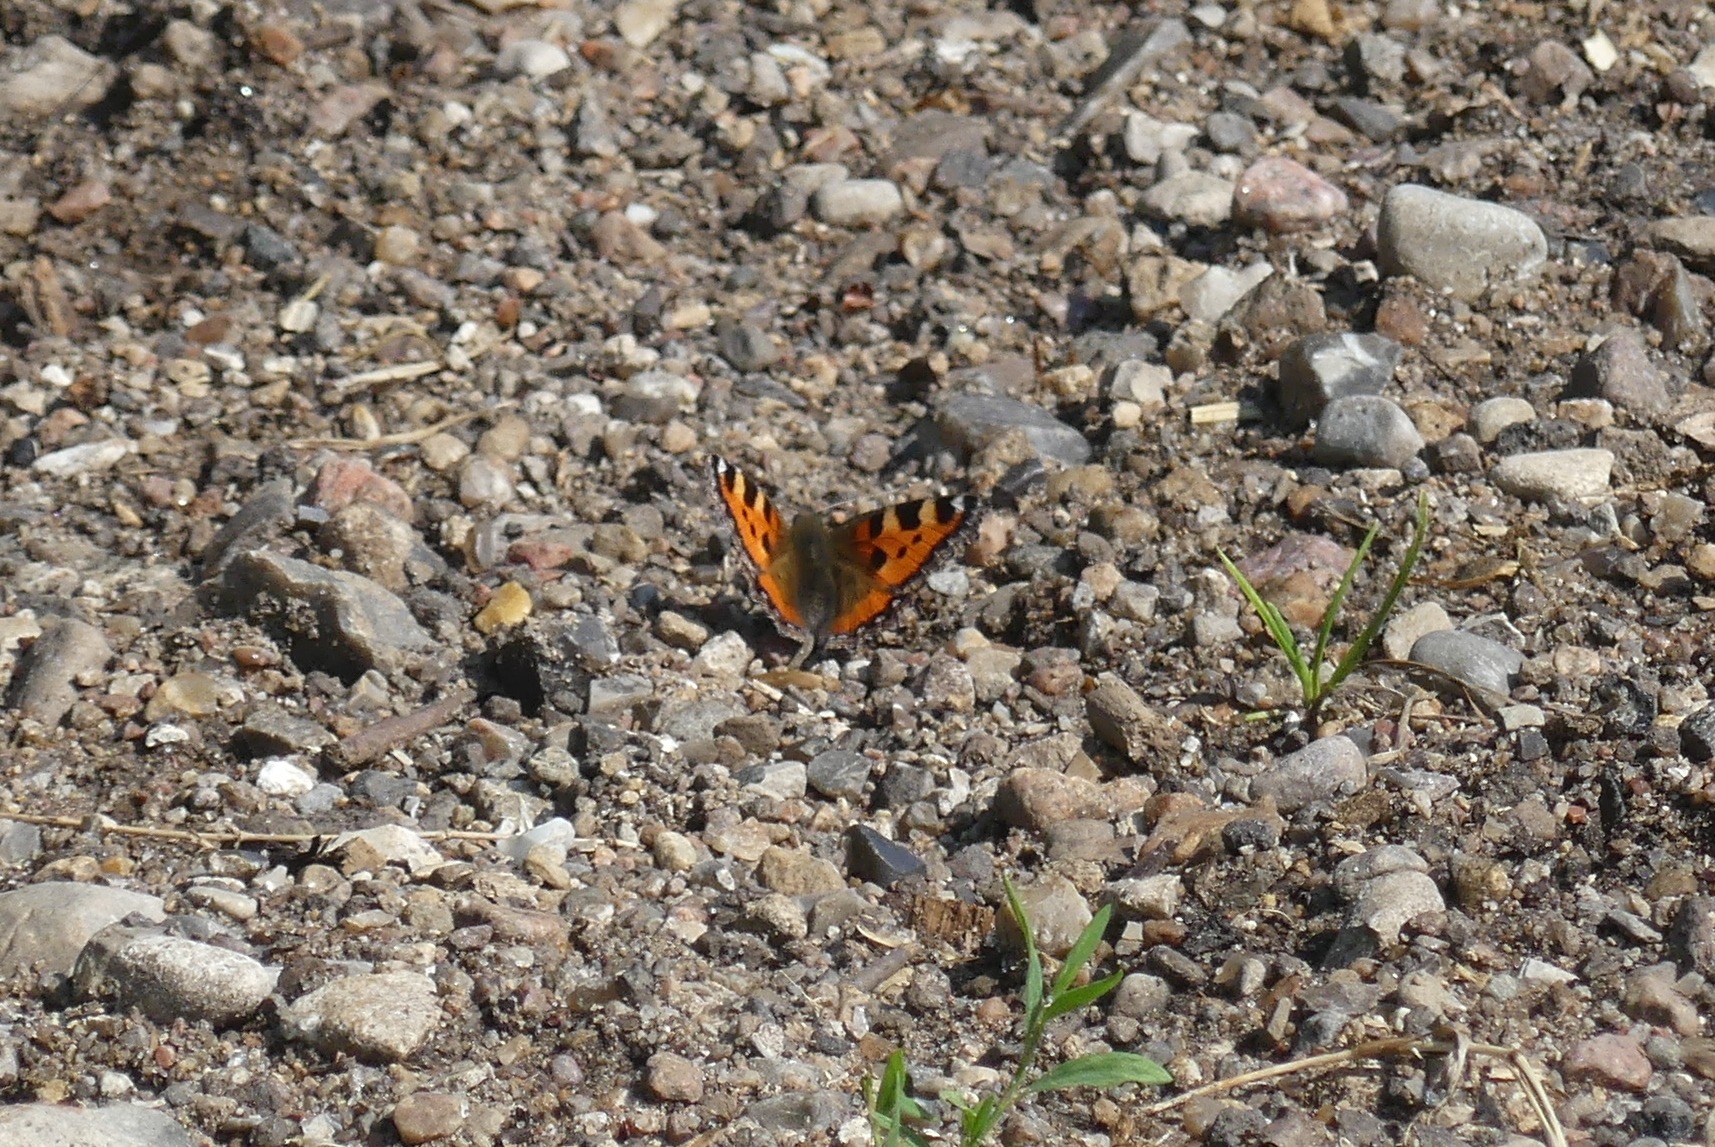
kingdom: Animalia
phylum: Arthropoda
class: Insecta
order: Lepidoptera
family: Nymphalidae
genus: Aglais
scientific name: Aglais urticae
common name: Nældens takvinge
